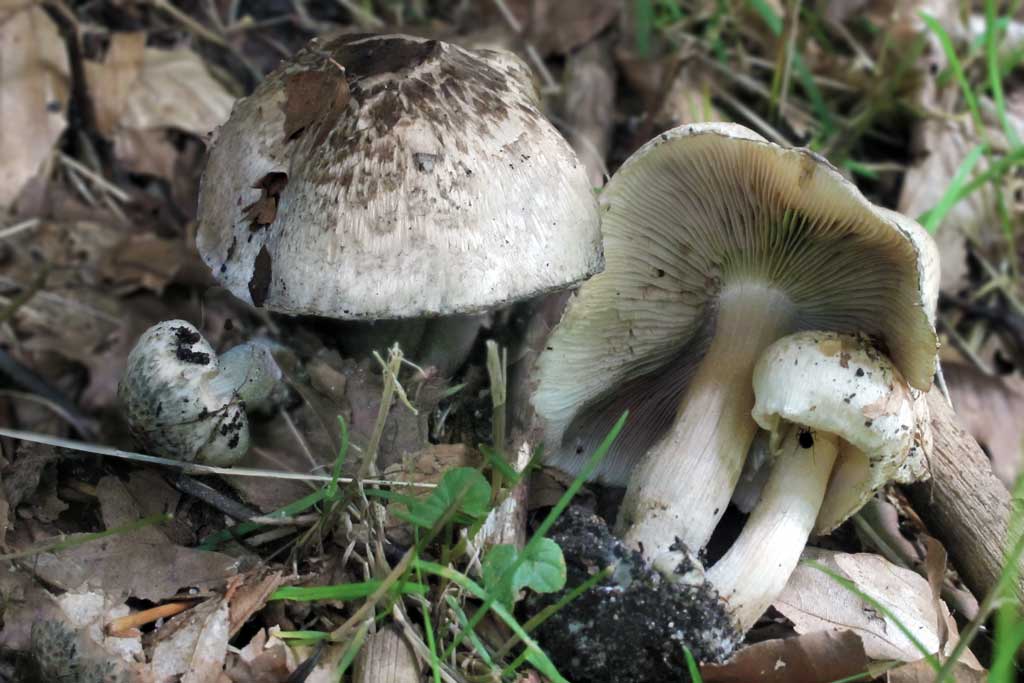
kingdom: Fungi
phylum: Basidiomycota
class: Agaricomycetes
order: Agaricales
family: Inocybaceae
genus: Inocybe
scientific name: Inocybe erinaceomorpha
